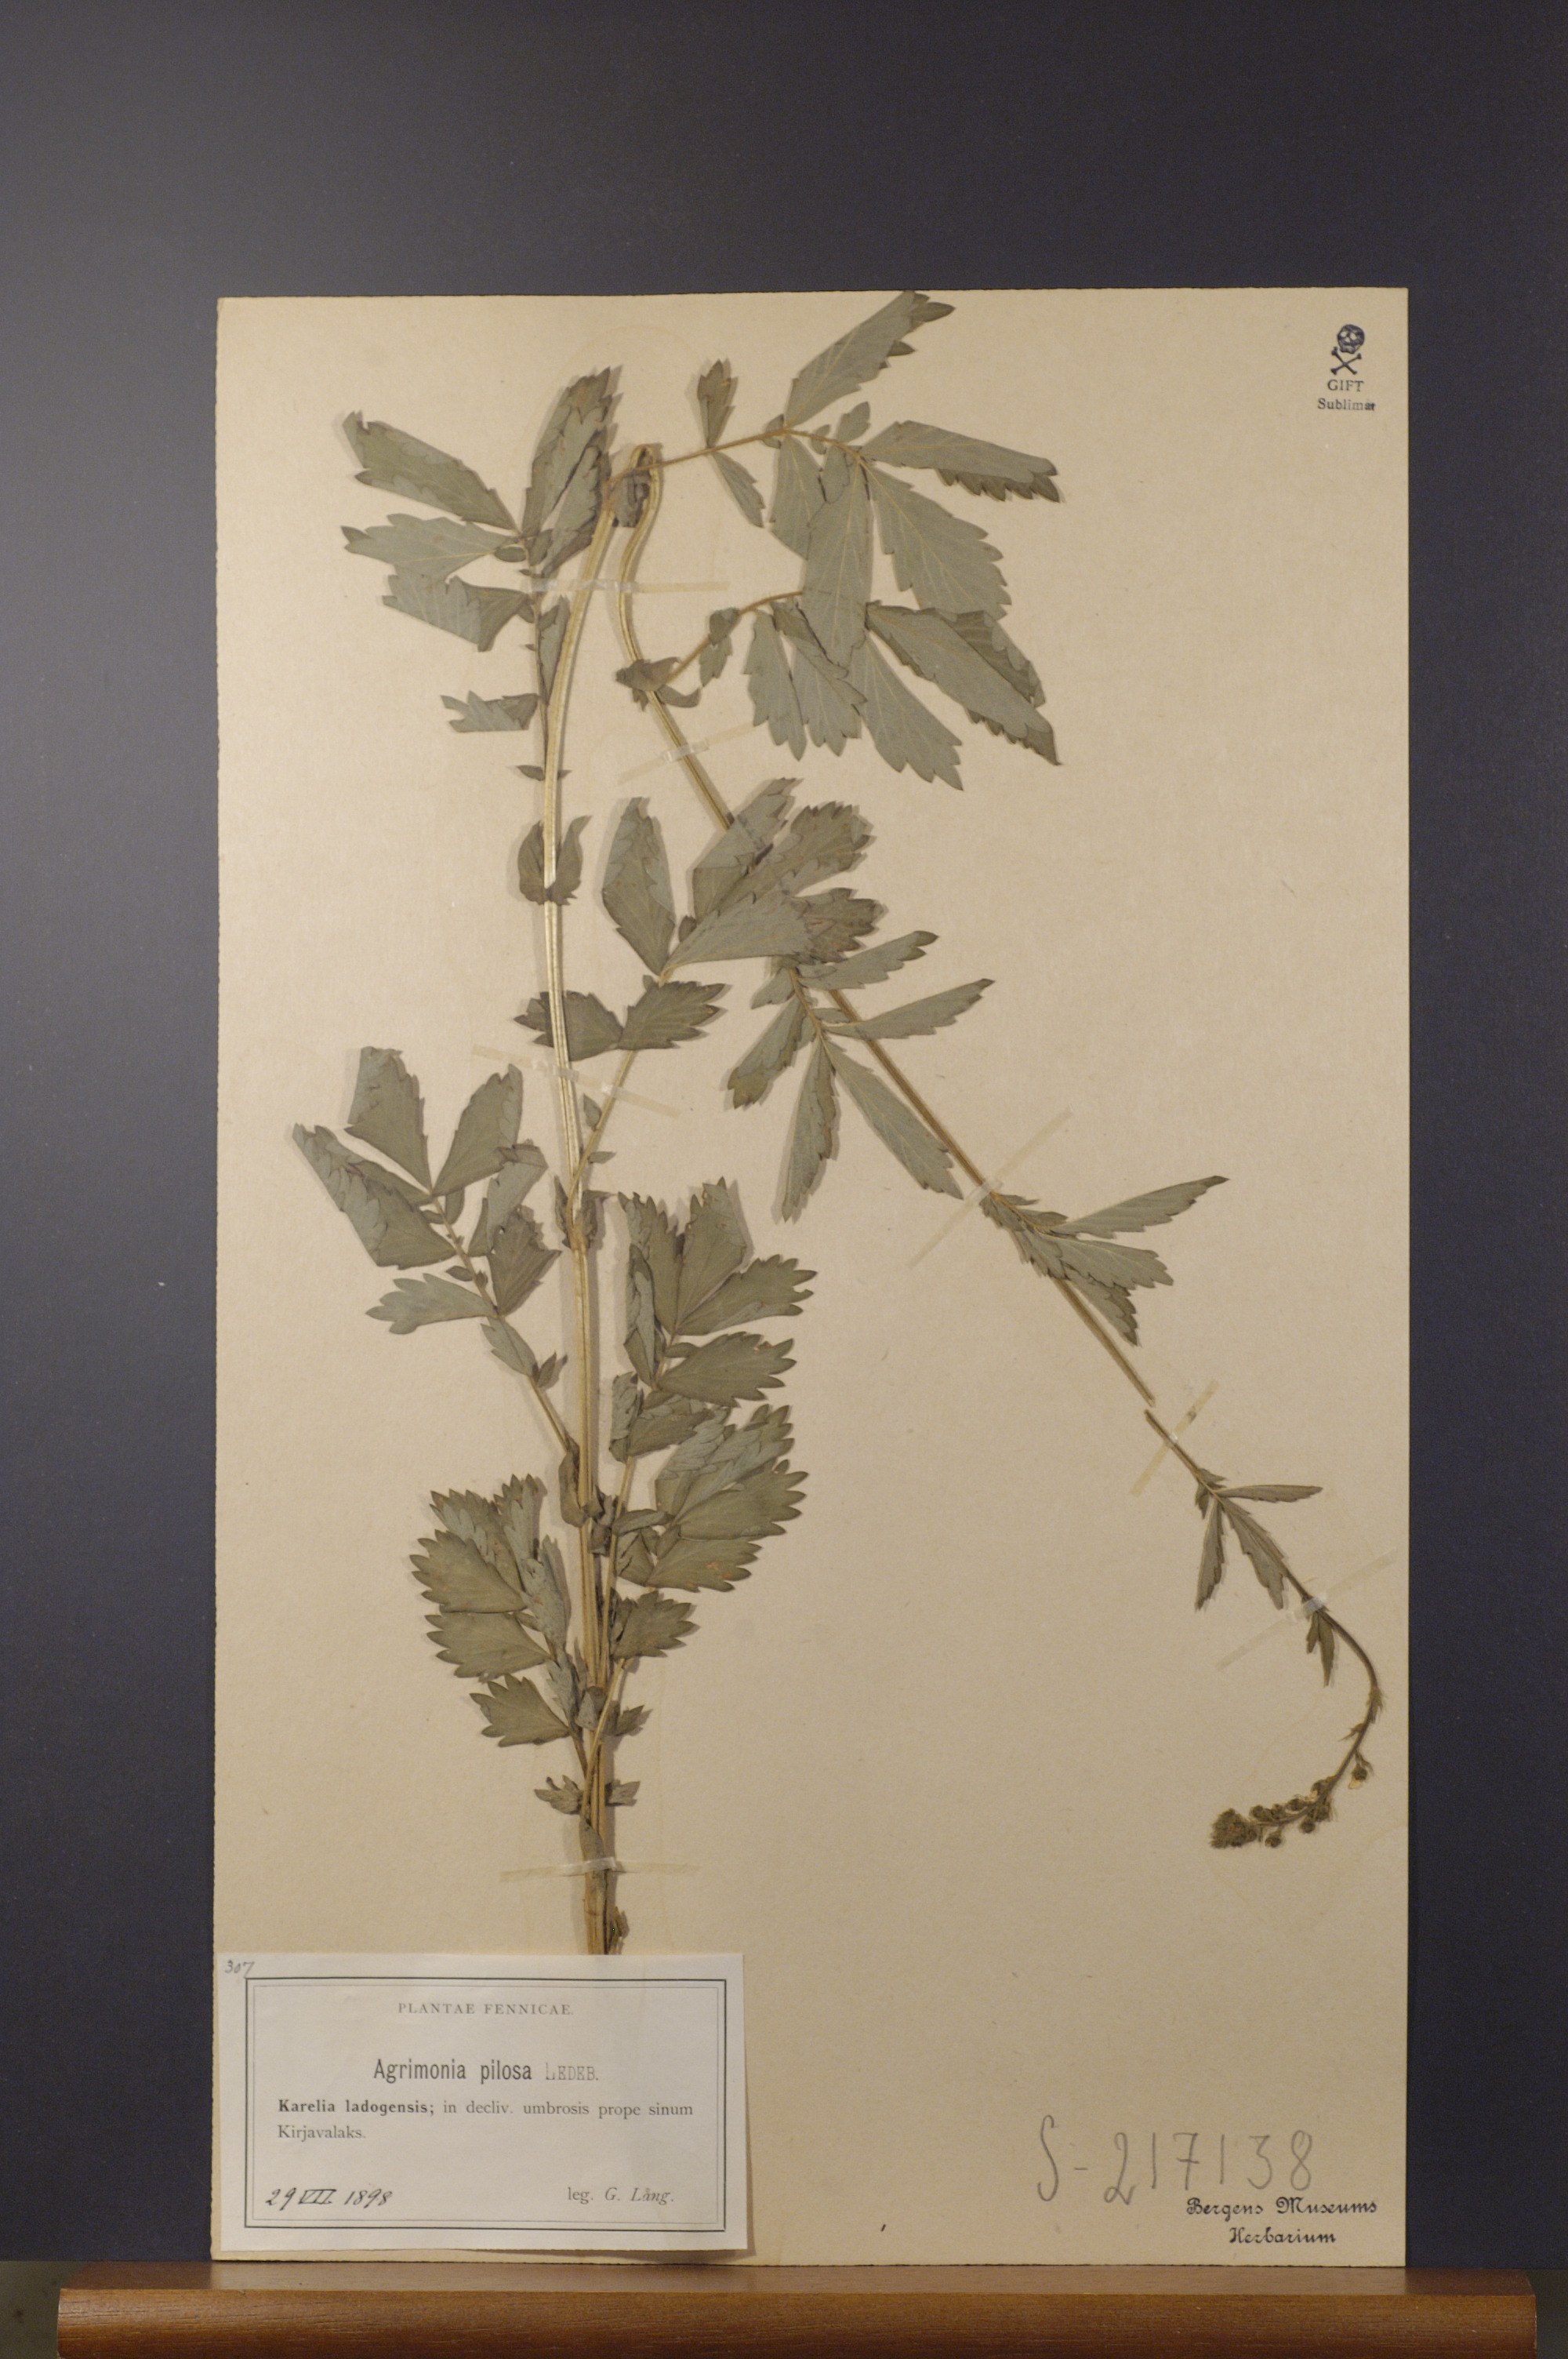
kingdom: Plantae
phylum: Tracheophyta
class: Magnoliopsida
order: Rosales
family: Rosaceae
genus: Agrimonia
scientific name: Agrimonia pilosa
